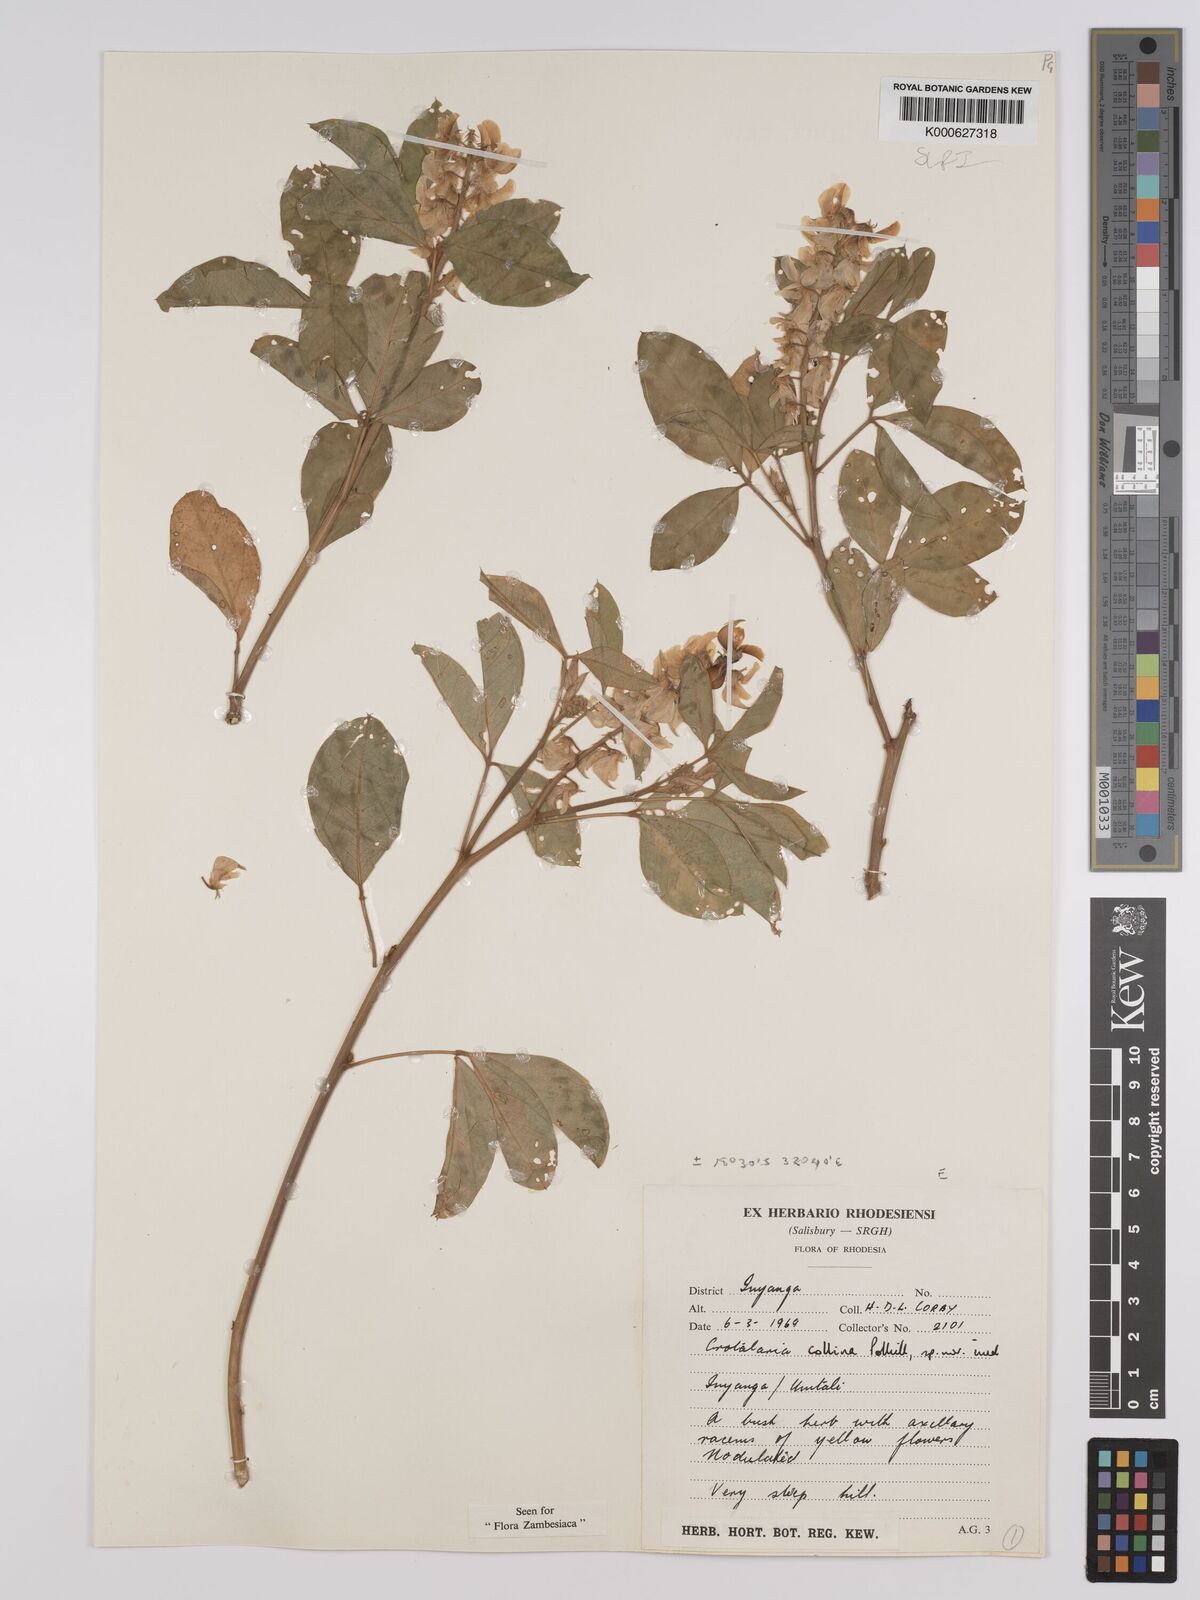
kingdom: Plantae
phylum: Tracheophyta
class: Magnoliopsida
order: Fabales
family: Fabaceae
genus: Crotalaria
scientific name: Crotalaria collina
